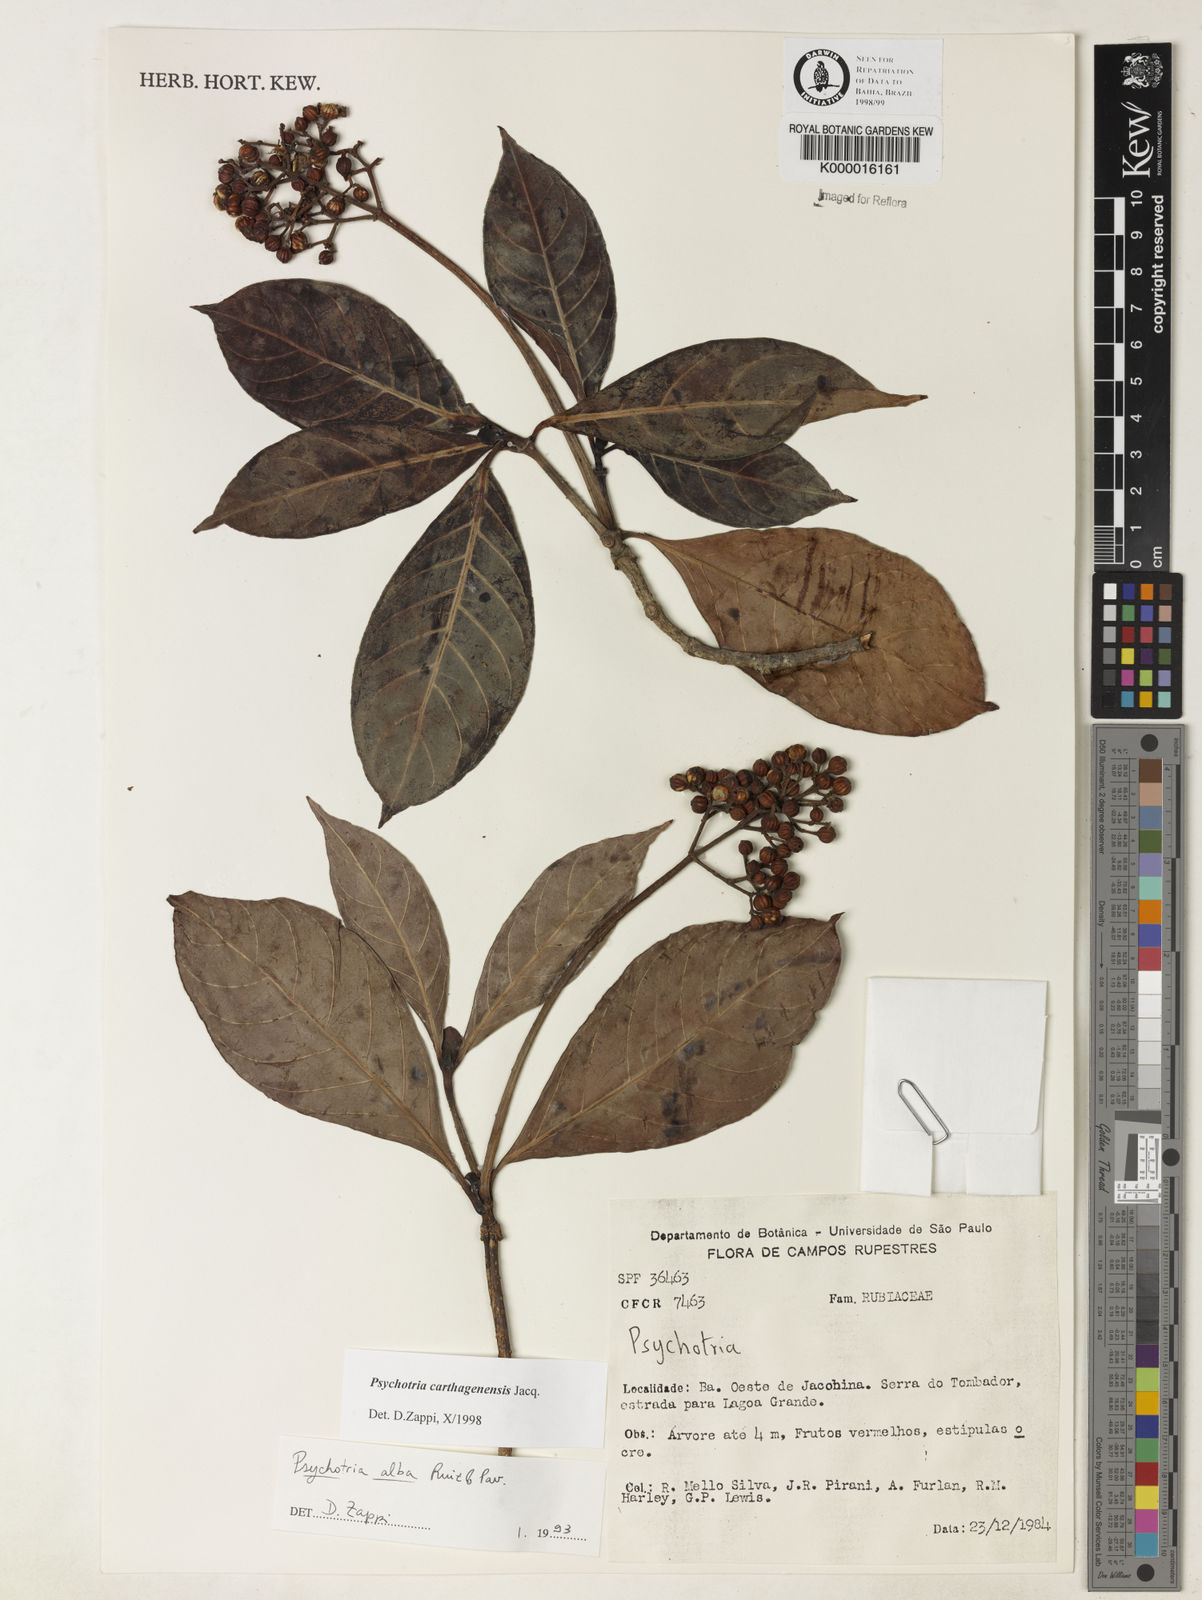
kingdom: Plantae
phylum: Tracheophyta
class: Magnoliopsida
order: Gentianales
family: Rubiaceae
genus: Psychotria
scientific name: Psychotria carthagenensis
